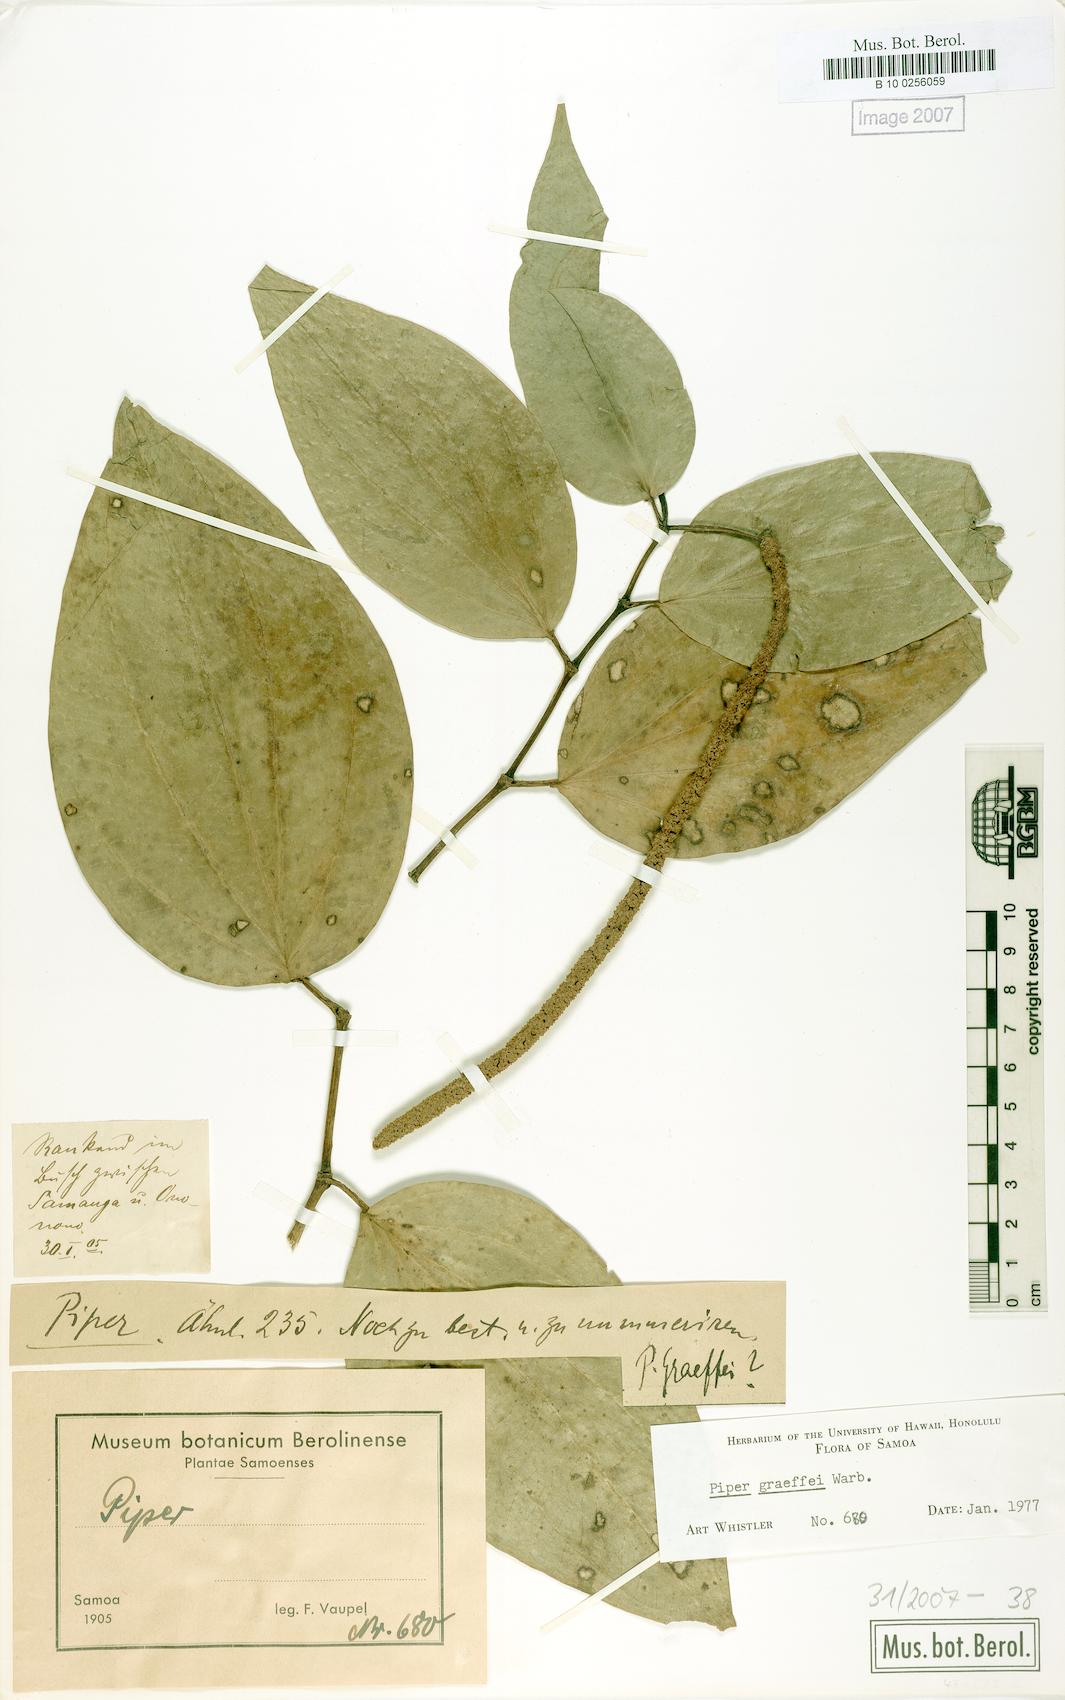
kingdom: Plantae
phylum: Tracheophyta
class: Magnoliopsida
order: Piperales
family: Piperaceae
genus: Piper
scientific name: Piper graeffei
